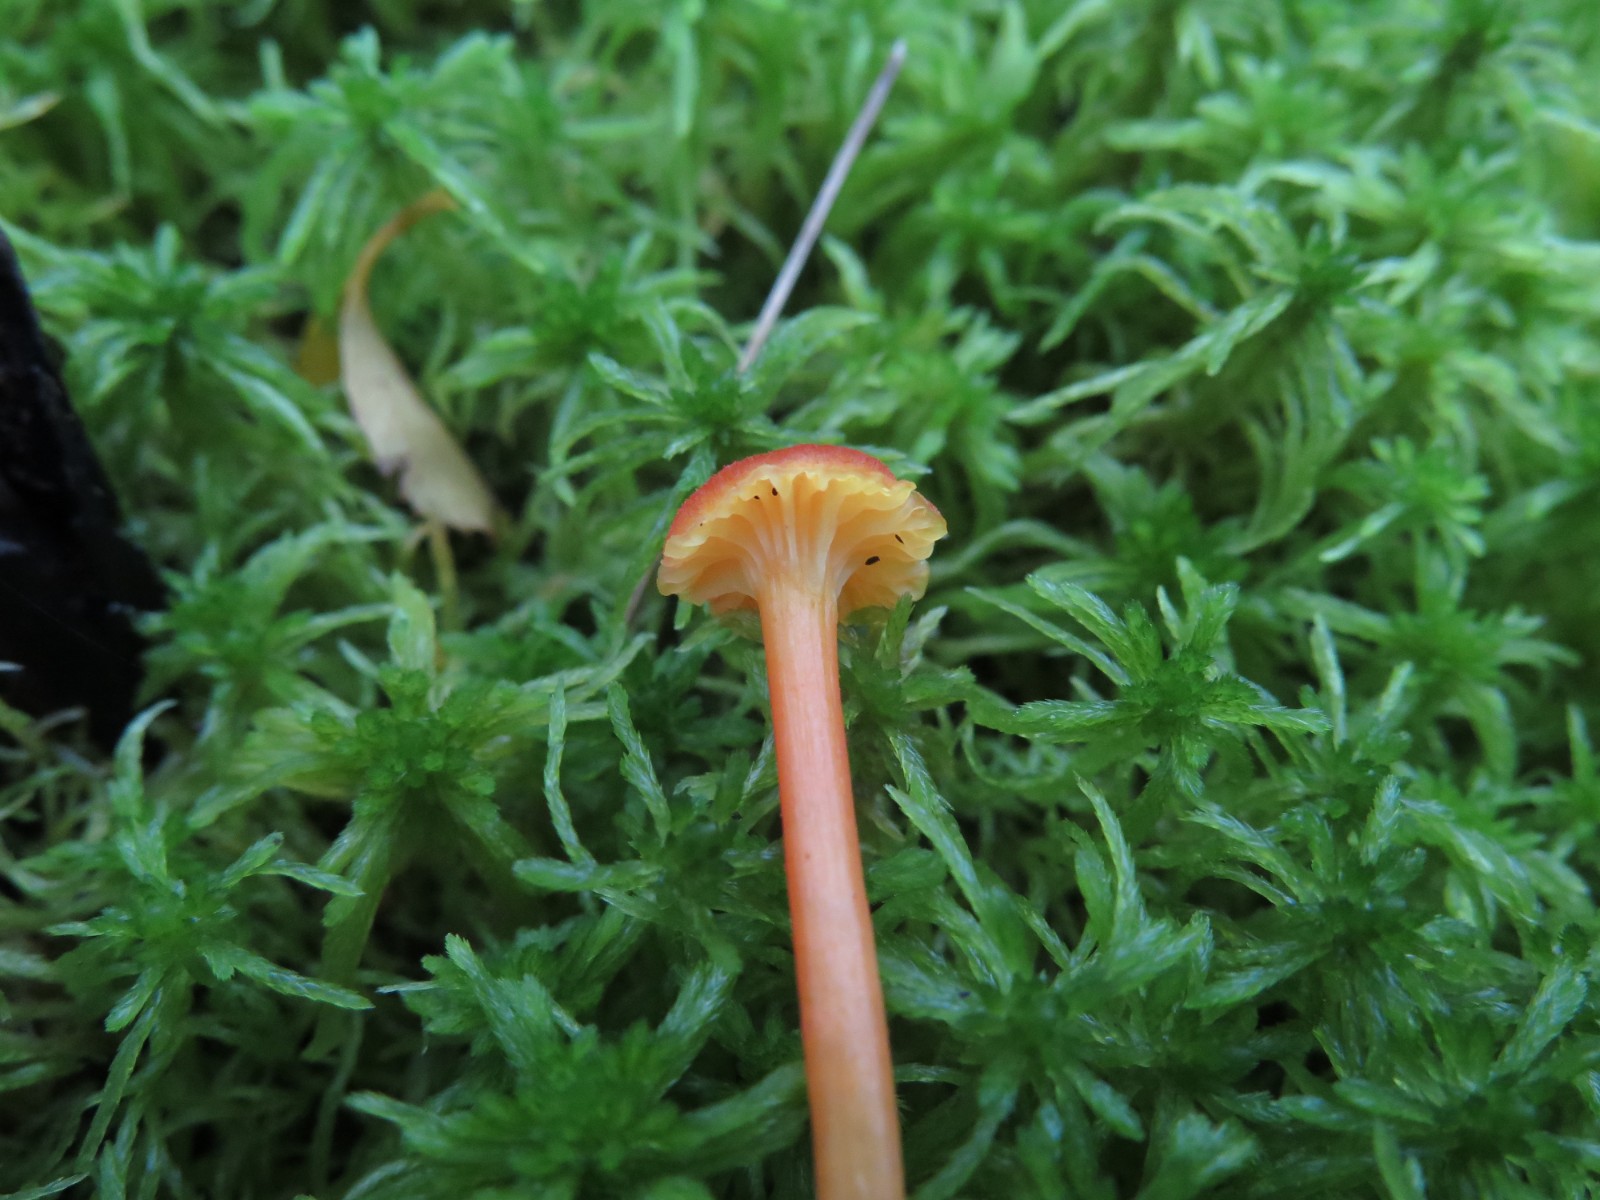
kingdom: Fungi
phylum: Basidiomycota
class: Agaricomycetes
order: Agaricales
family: Hygrophoraceae
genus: Hygrocybe
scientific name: Hygrocybe cantharellus
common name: kantarel-vokshat
